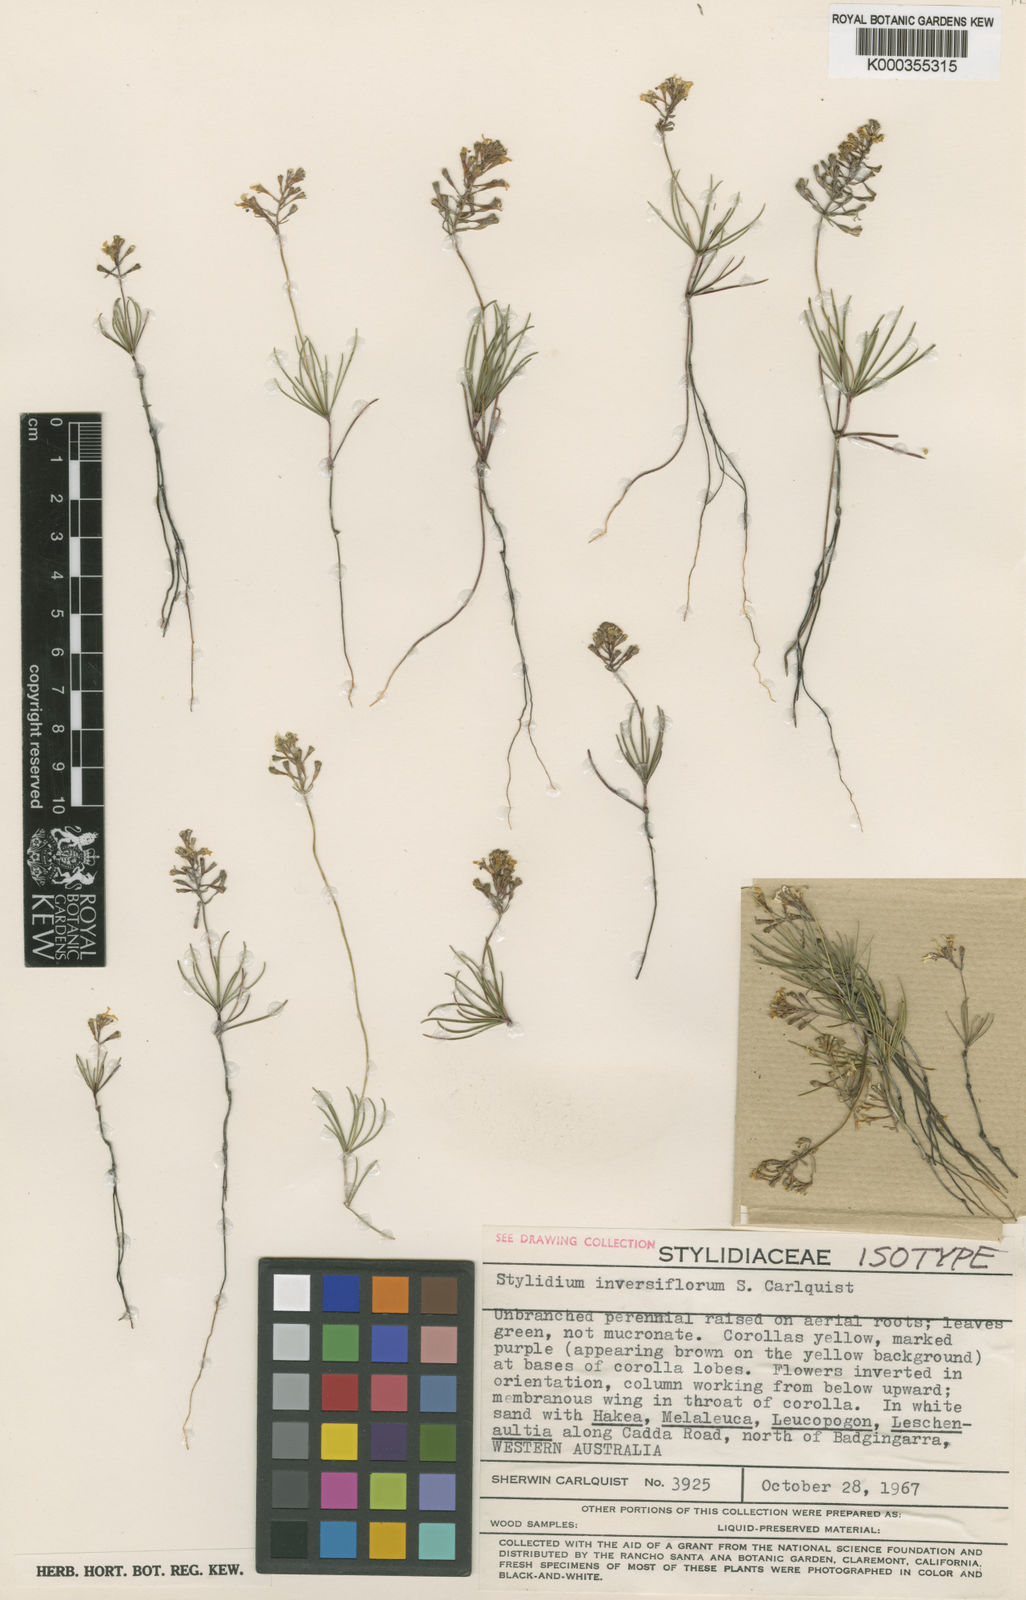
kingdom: Plantae
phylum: Tracheophyta
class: Magnoliopsida
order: Asterales
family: Stylidiaceae
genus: Stylidium
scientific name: Stylidium inversiflorum
